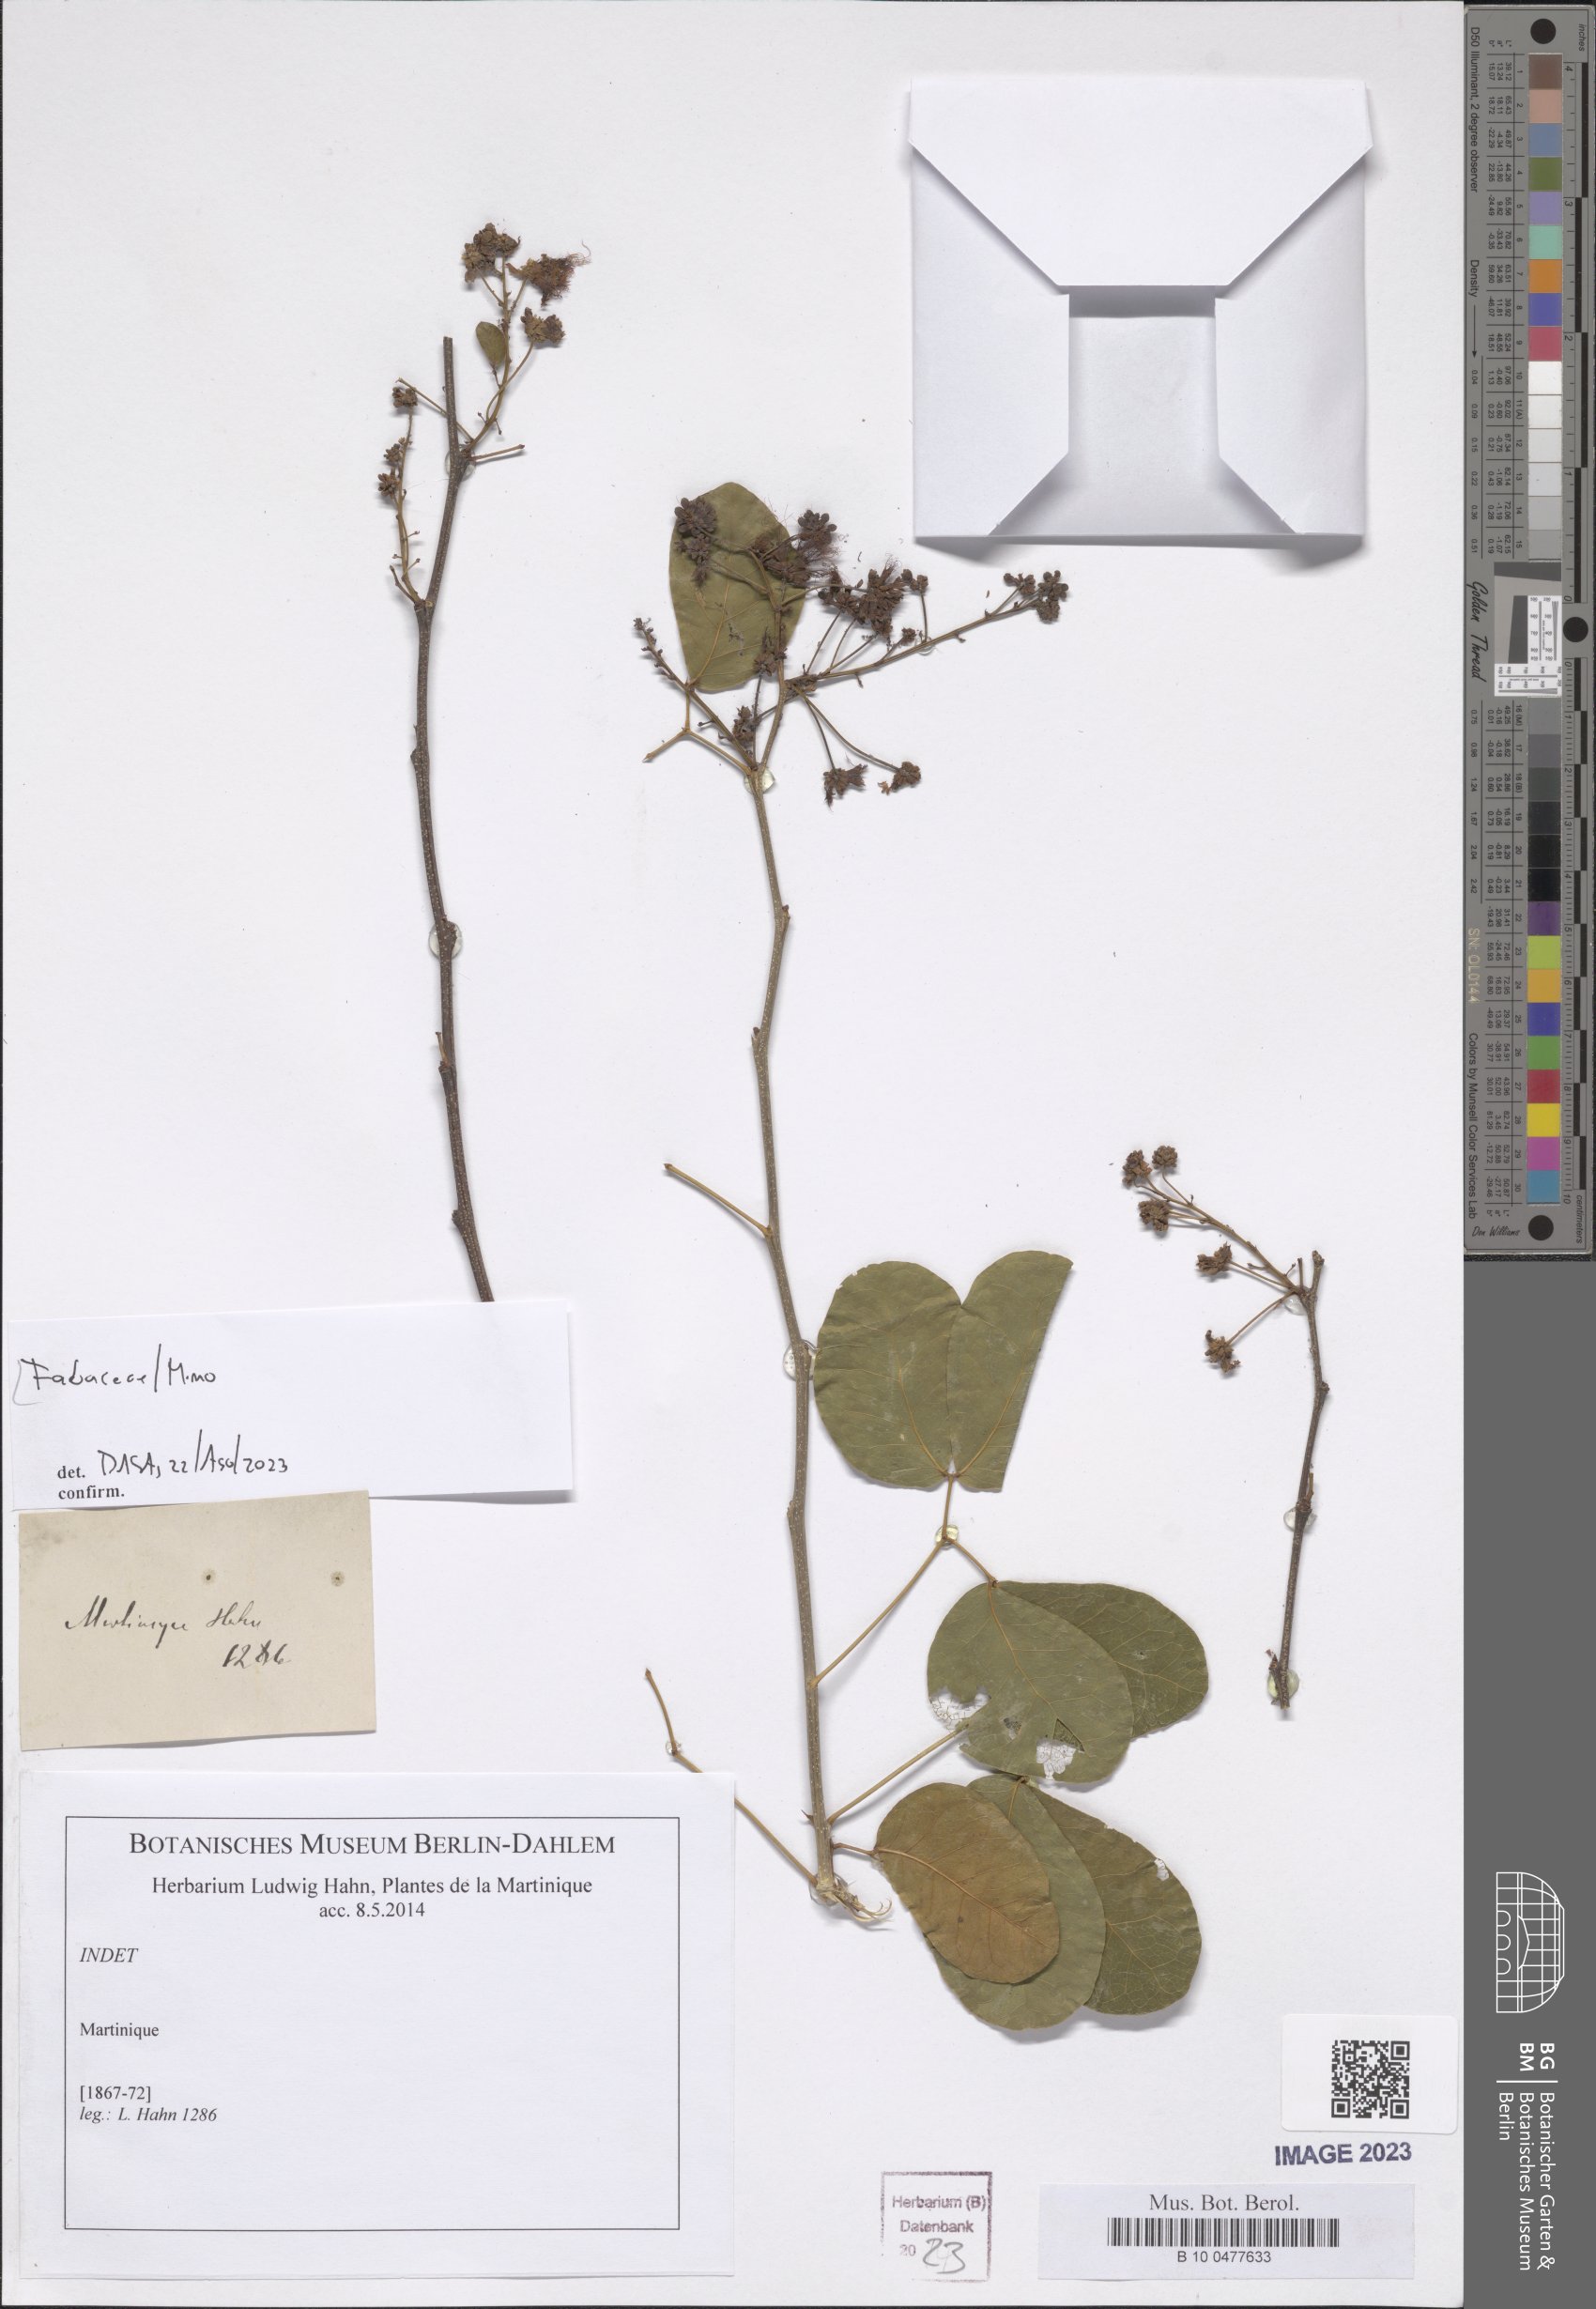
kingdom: Plantae
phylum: Tracheophyta
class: Magnoliopsida
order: Fabales
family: Fabaceae
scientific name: Fabaceae
